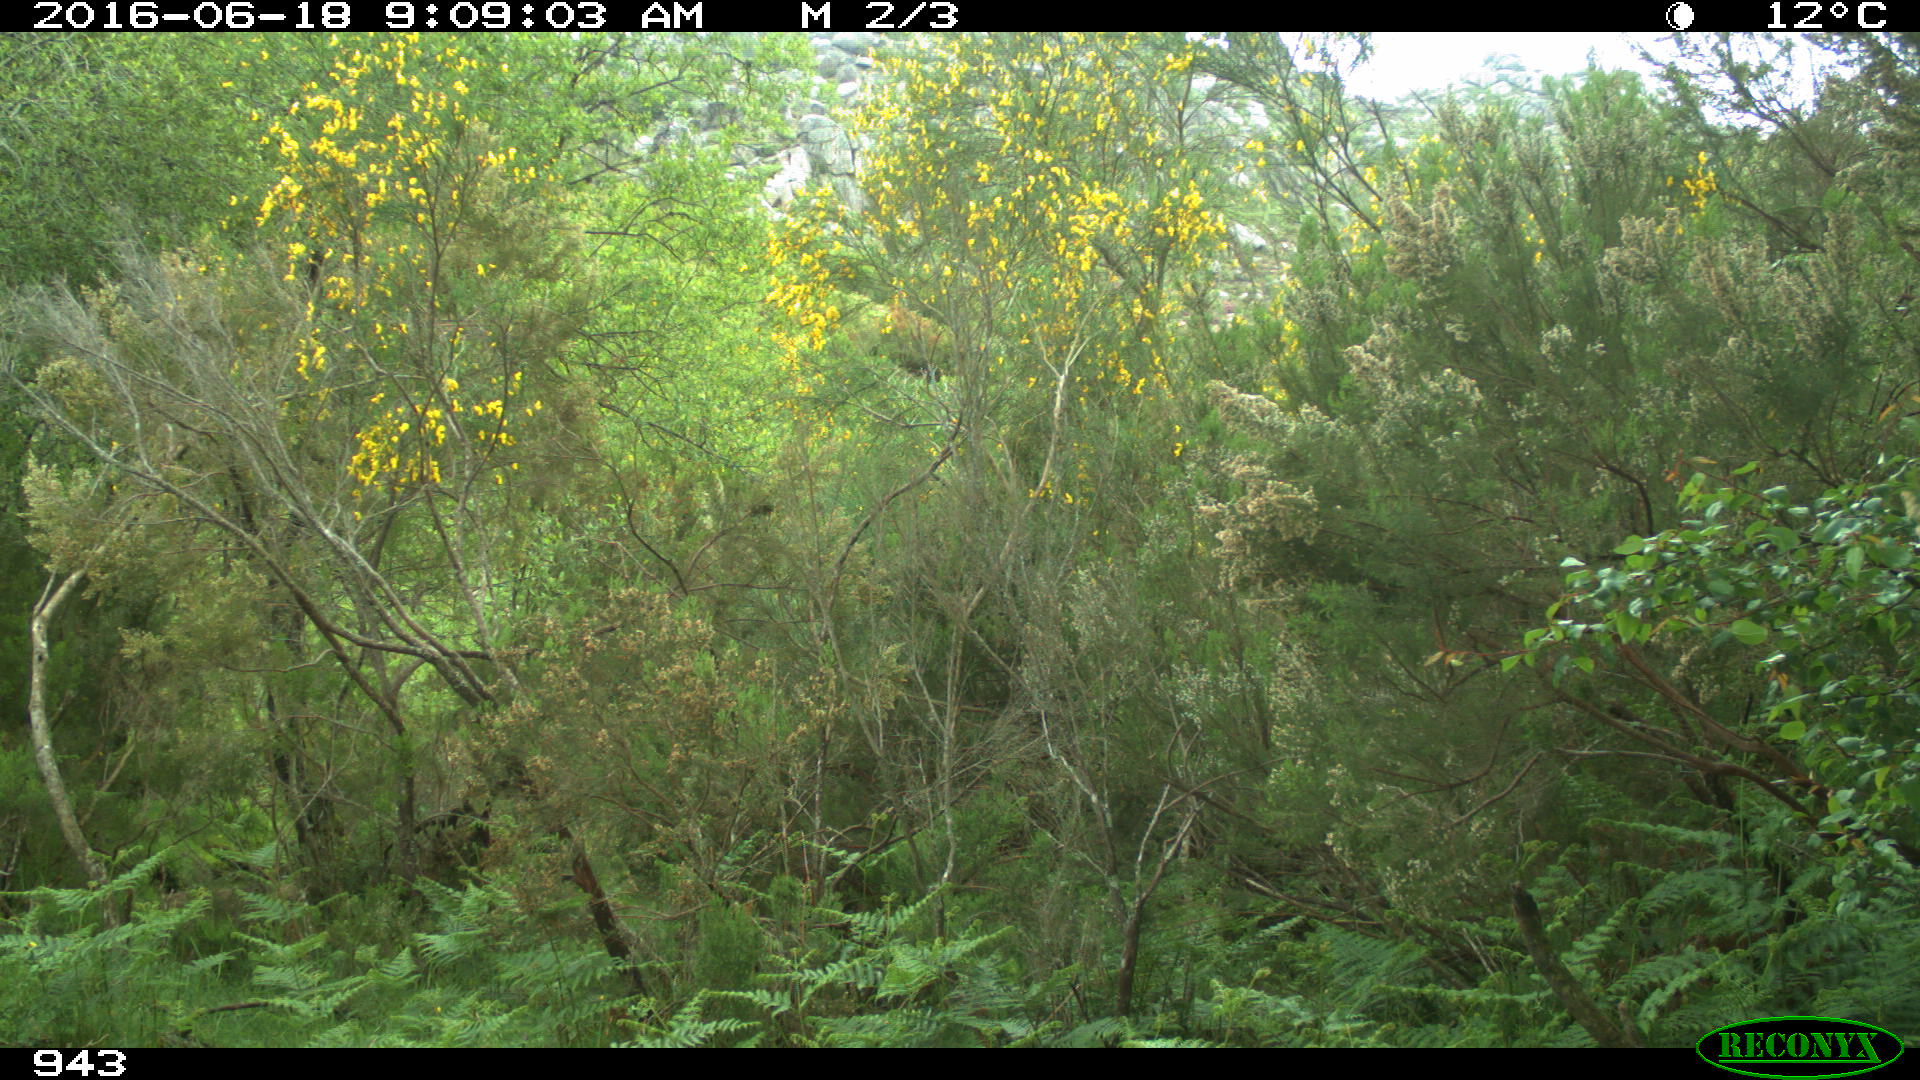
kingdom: Animalia
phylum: Chordata
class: Mammalia
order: Perissodactyla
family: Equidae
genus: Equus
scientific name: Equus caballus
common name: Horse
